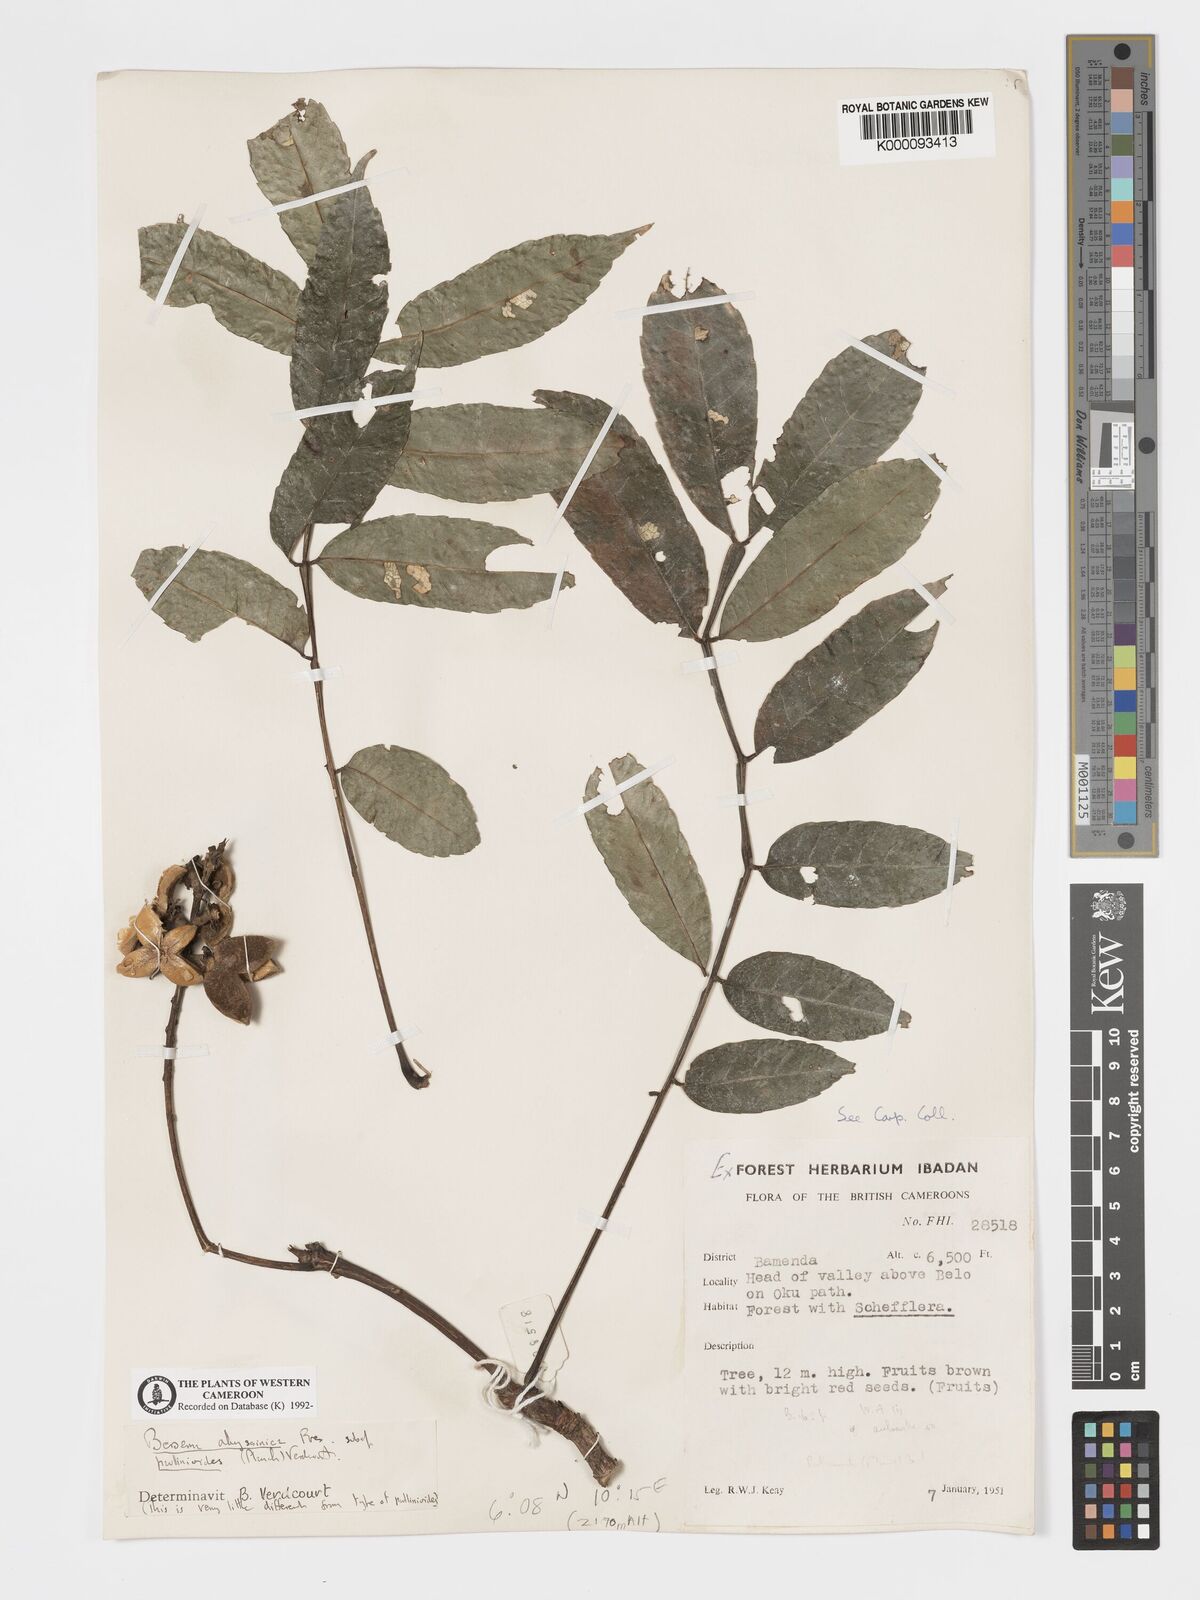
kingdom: Plantae
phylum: Tracheophyta
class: Magnoliopsida
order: Geraniales
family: Melianthaceae
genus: Bersama
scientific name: Bersama
